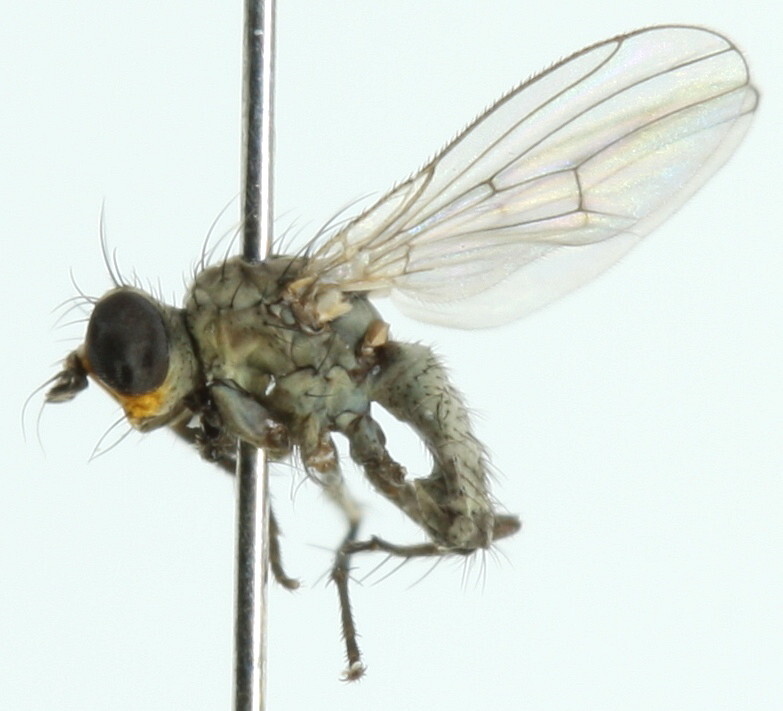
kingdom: Animalia
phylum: Arthropoda
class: Insecta
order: Diptera
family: Muscidae
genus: Schoenomyza
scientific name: Schoenomyza litorella
